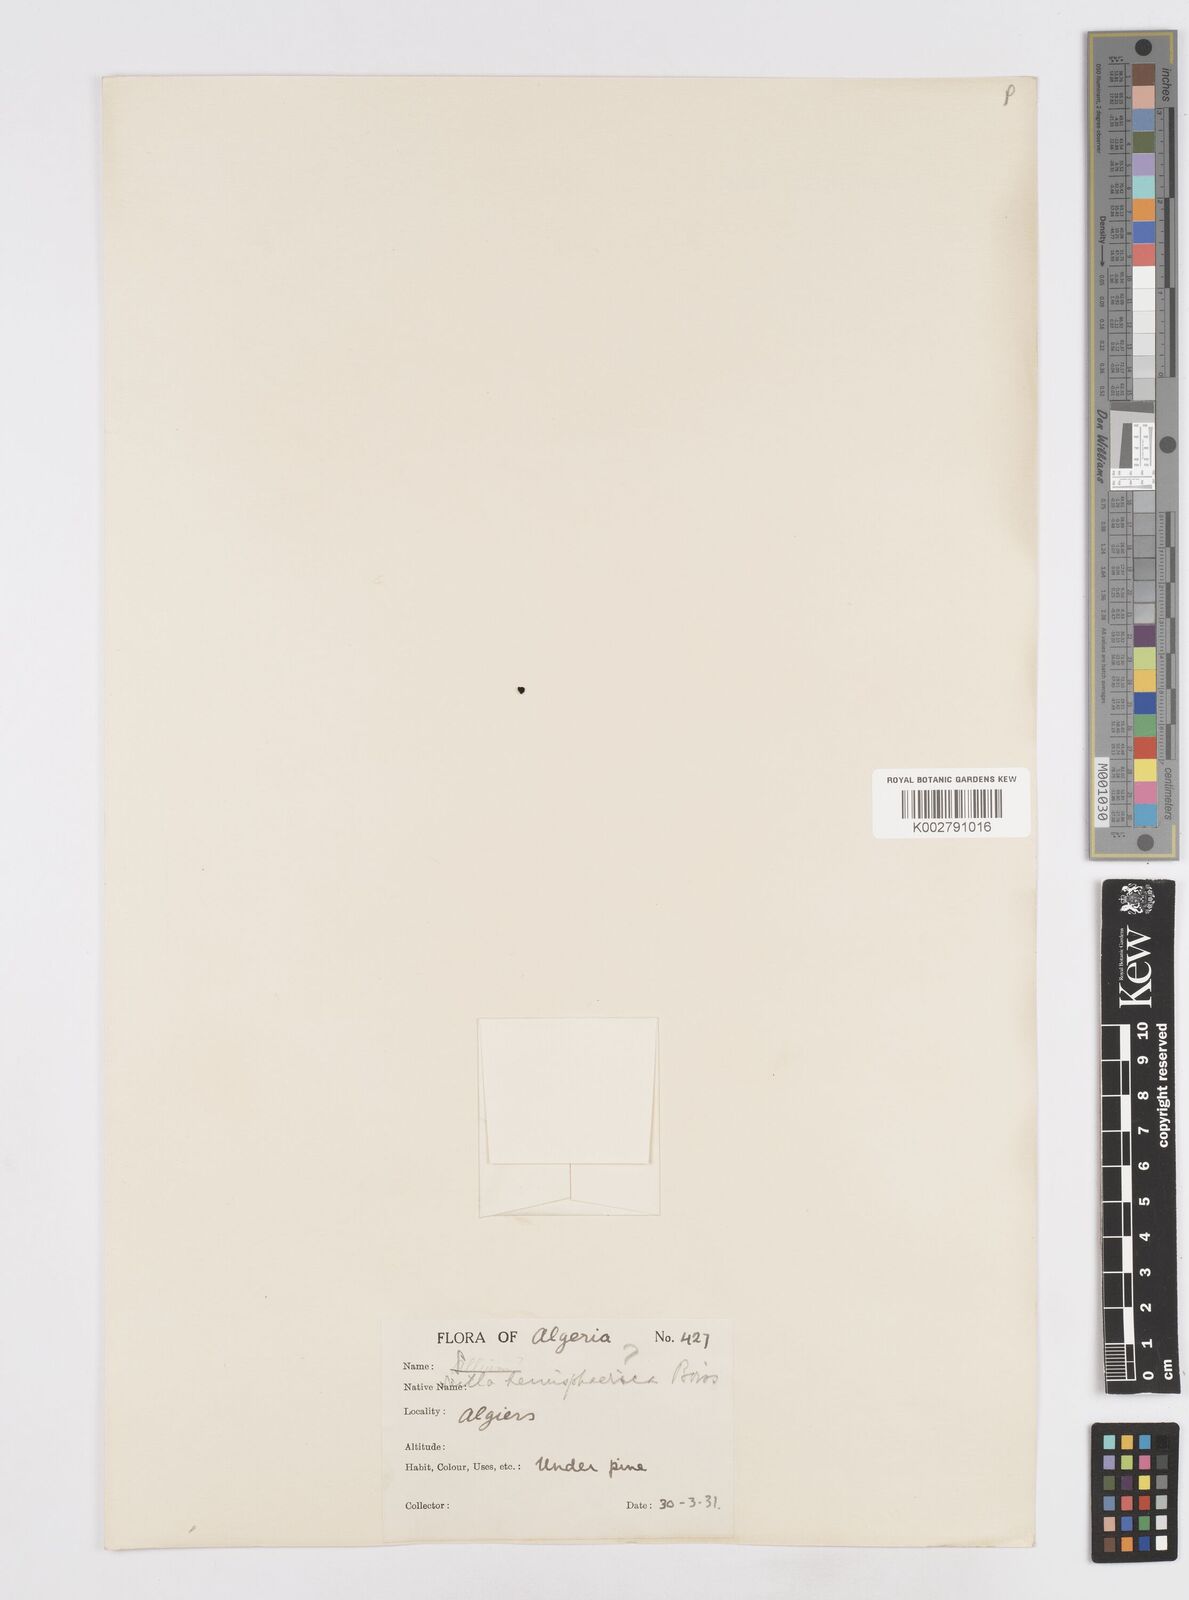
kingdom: Plantae
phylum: Tracheophyta
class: Liliopsida
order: Asparagales
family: Asparagaceae
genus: Scilla
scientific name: Scilla peruviana
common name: Portuguese squill
